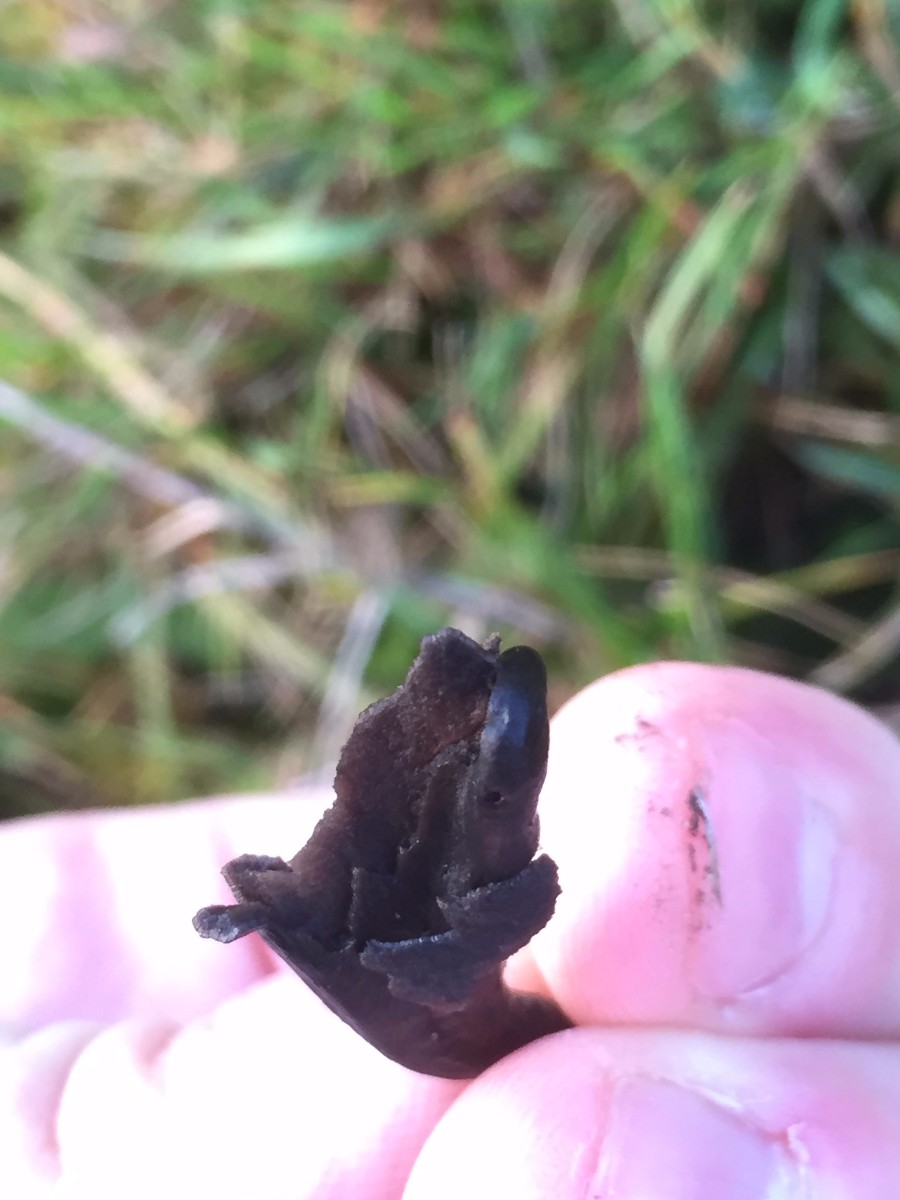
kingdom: Fungi
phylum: Ascomycota
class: Geoglossomycetes
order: Geoglossales
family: Geoglossaceae
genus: Glutinoglossum
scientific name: Glutinoglossum glutinosum
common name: slimet jordtunge
